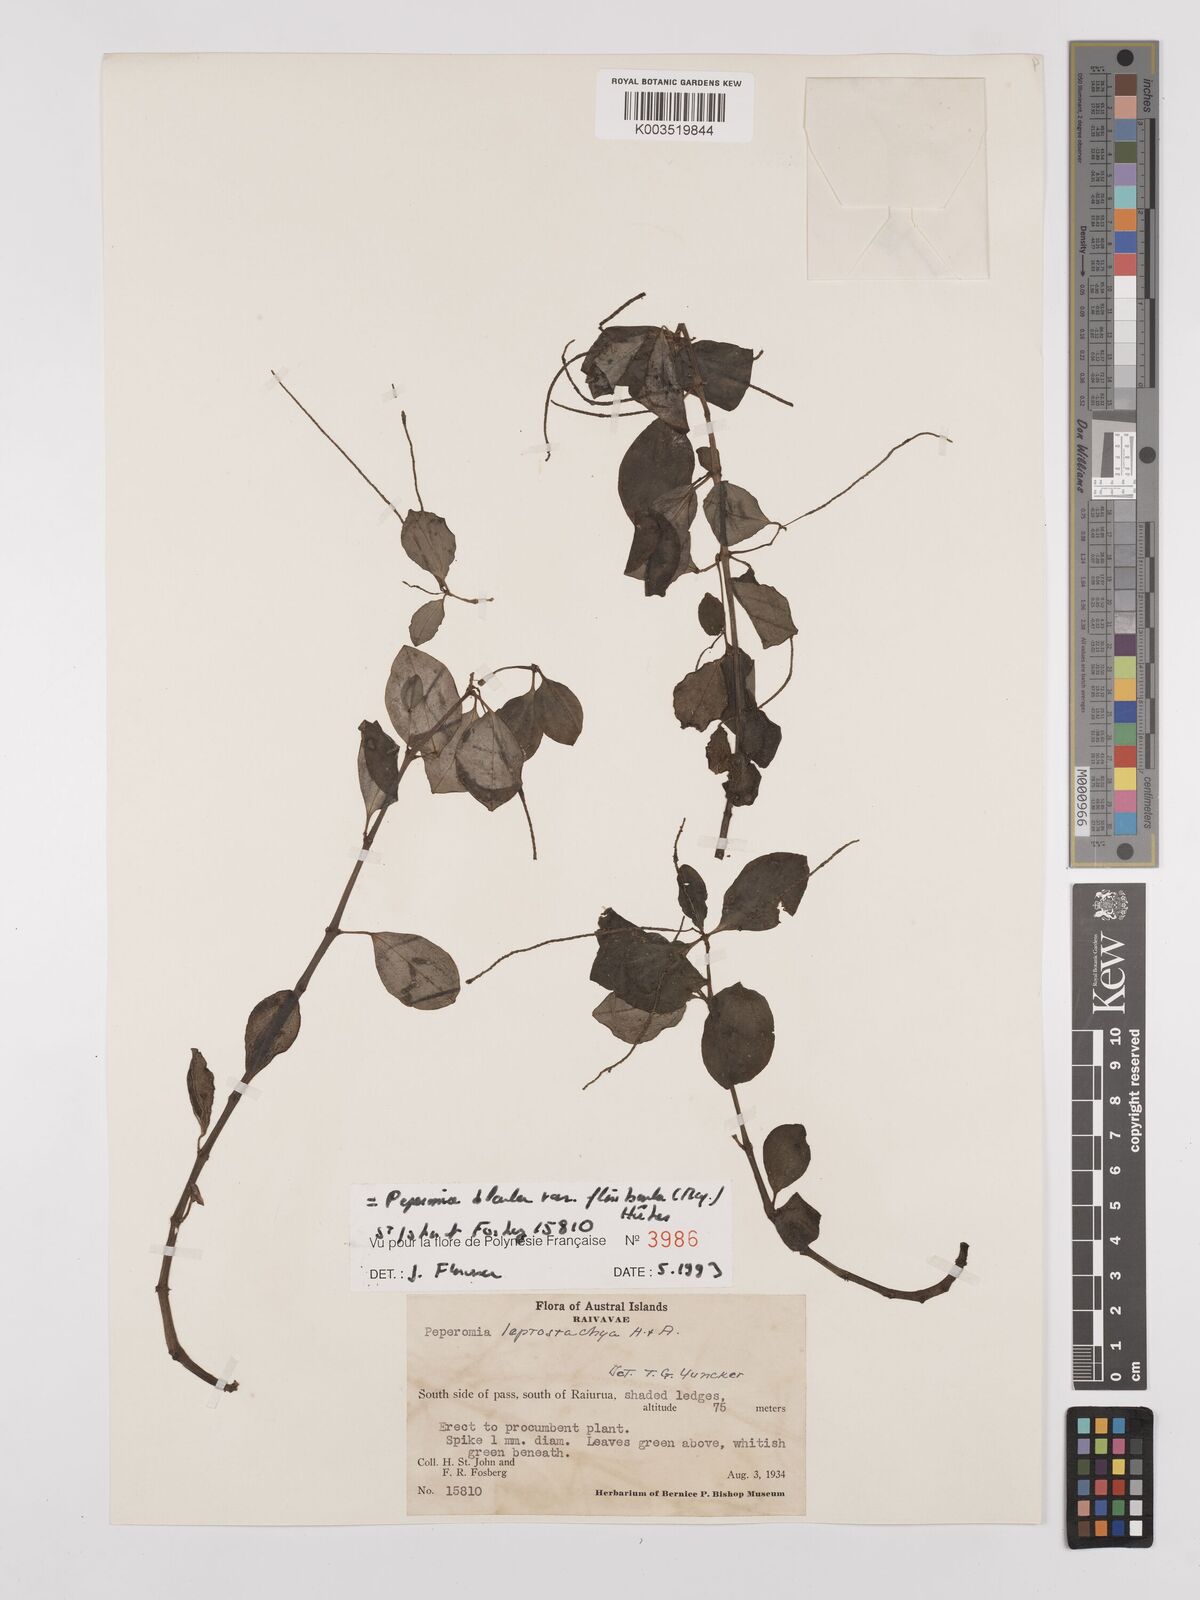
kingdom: Plantae
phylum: Tracheophyta
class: Magnoliopsida
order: Piperales
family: Piperaceae
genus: Peperomia
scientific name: Peperomia leptostachya
